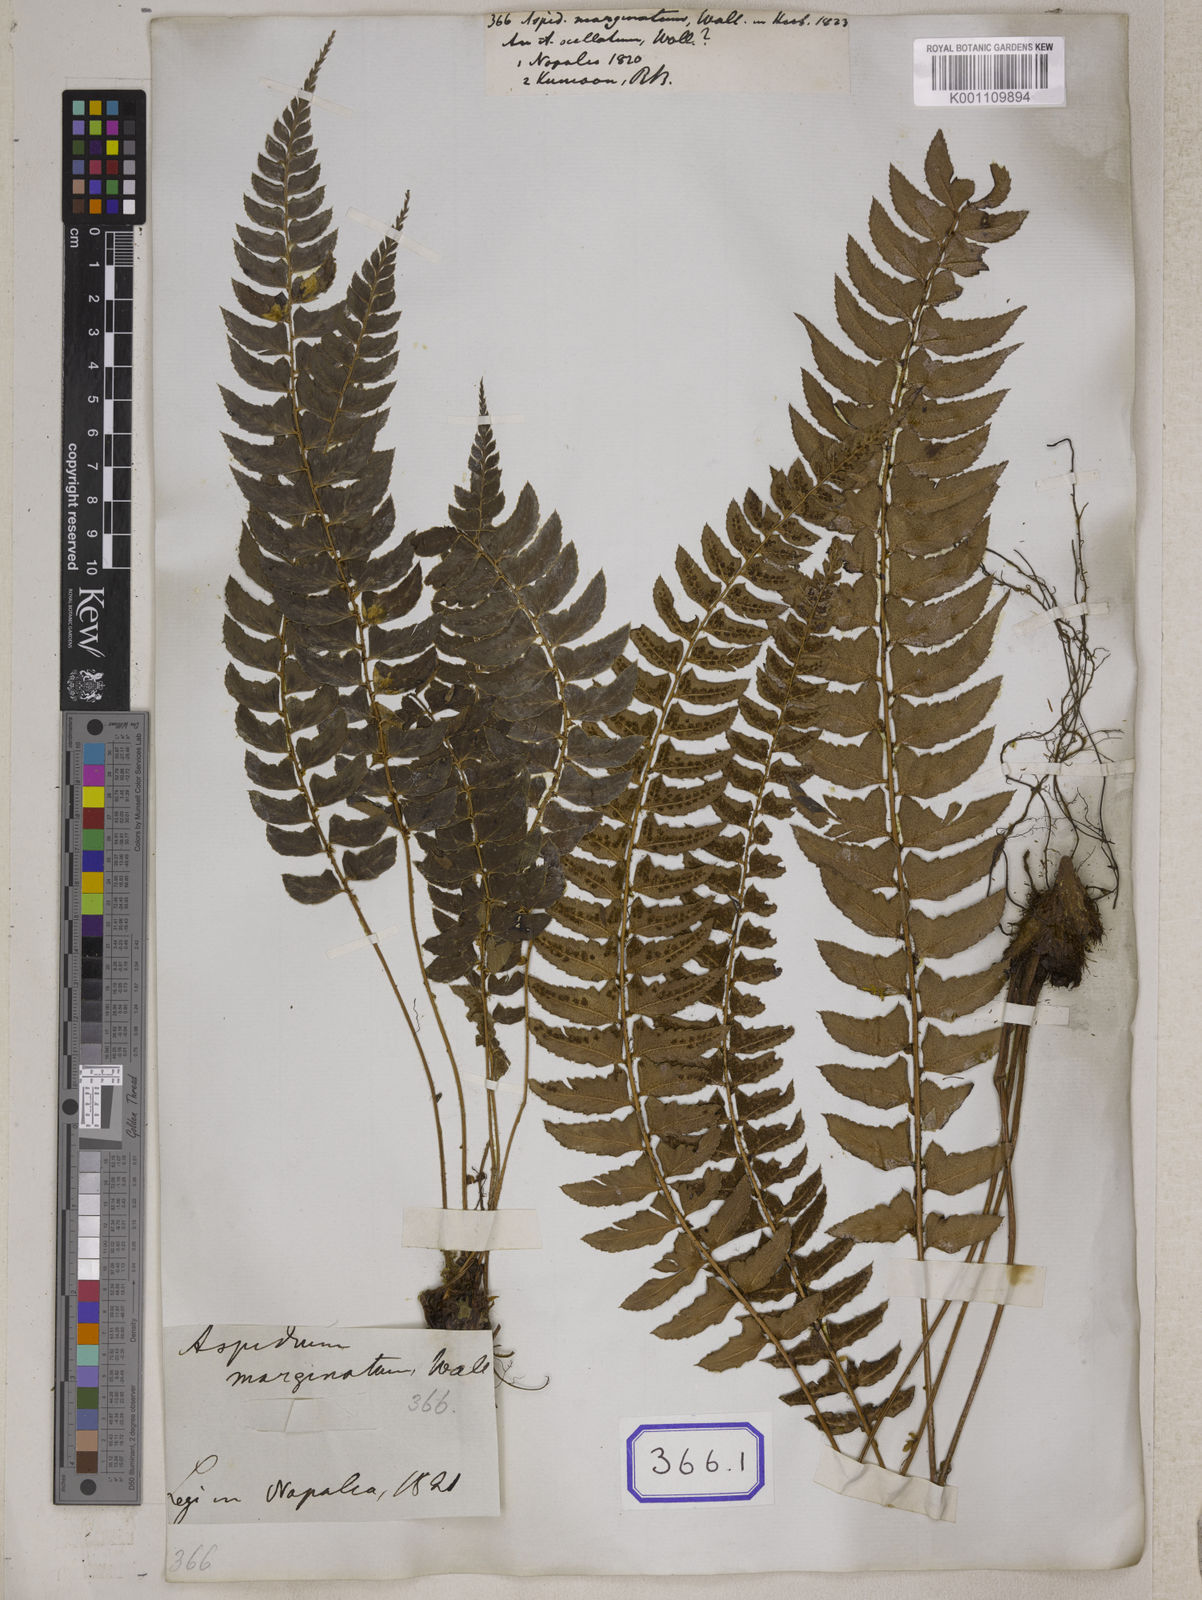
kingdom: Plantae
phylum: Tracheophyta
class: Polypodiopsida
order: Polypodiales
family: Tectariaceae
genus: Tectaria
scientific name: Tectaria Aspidium spec
